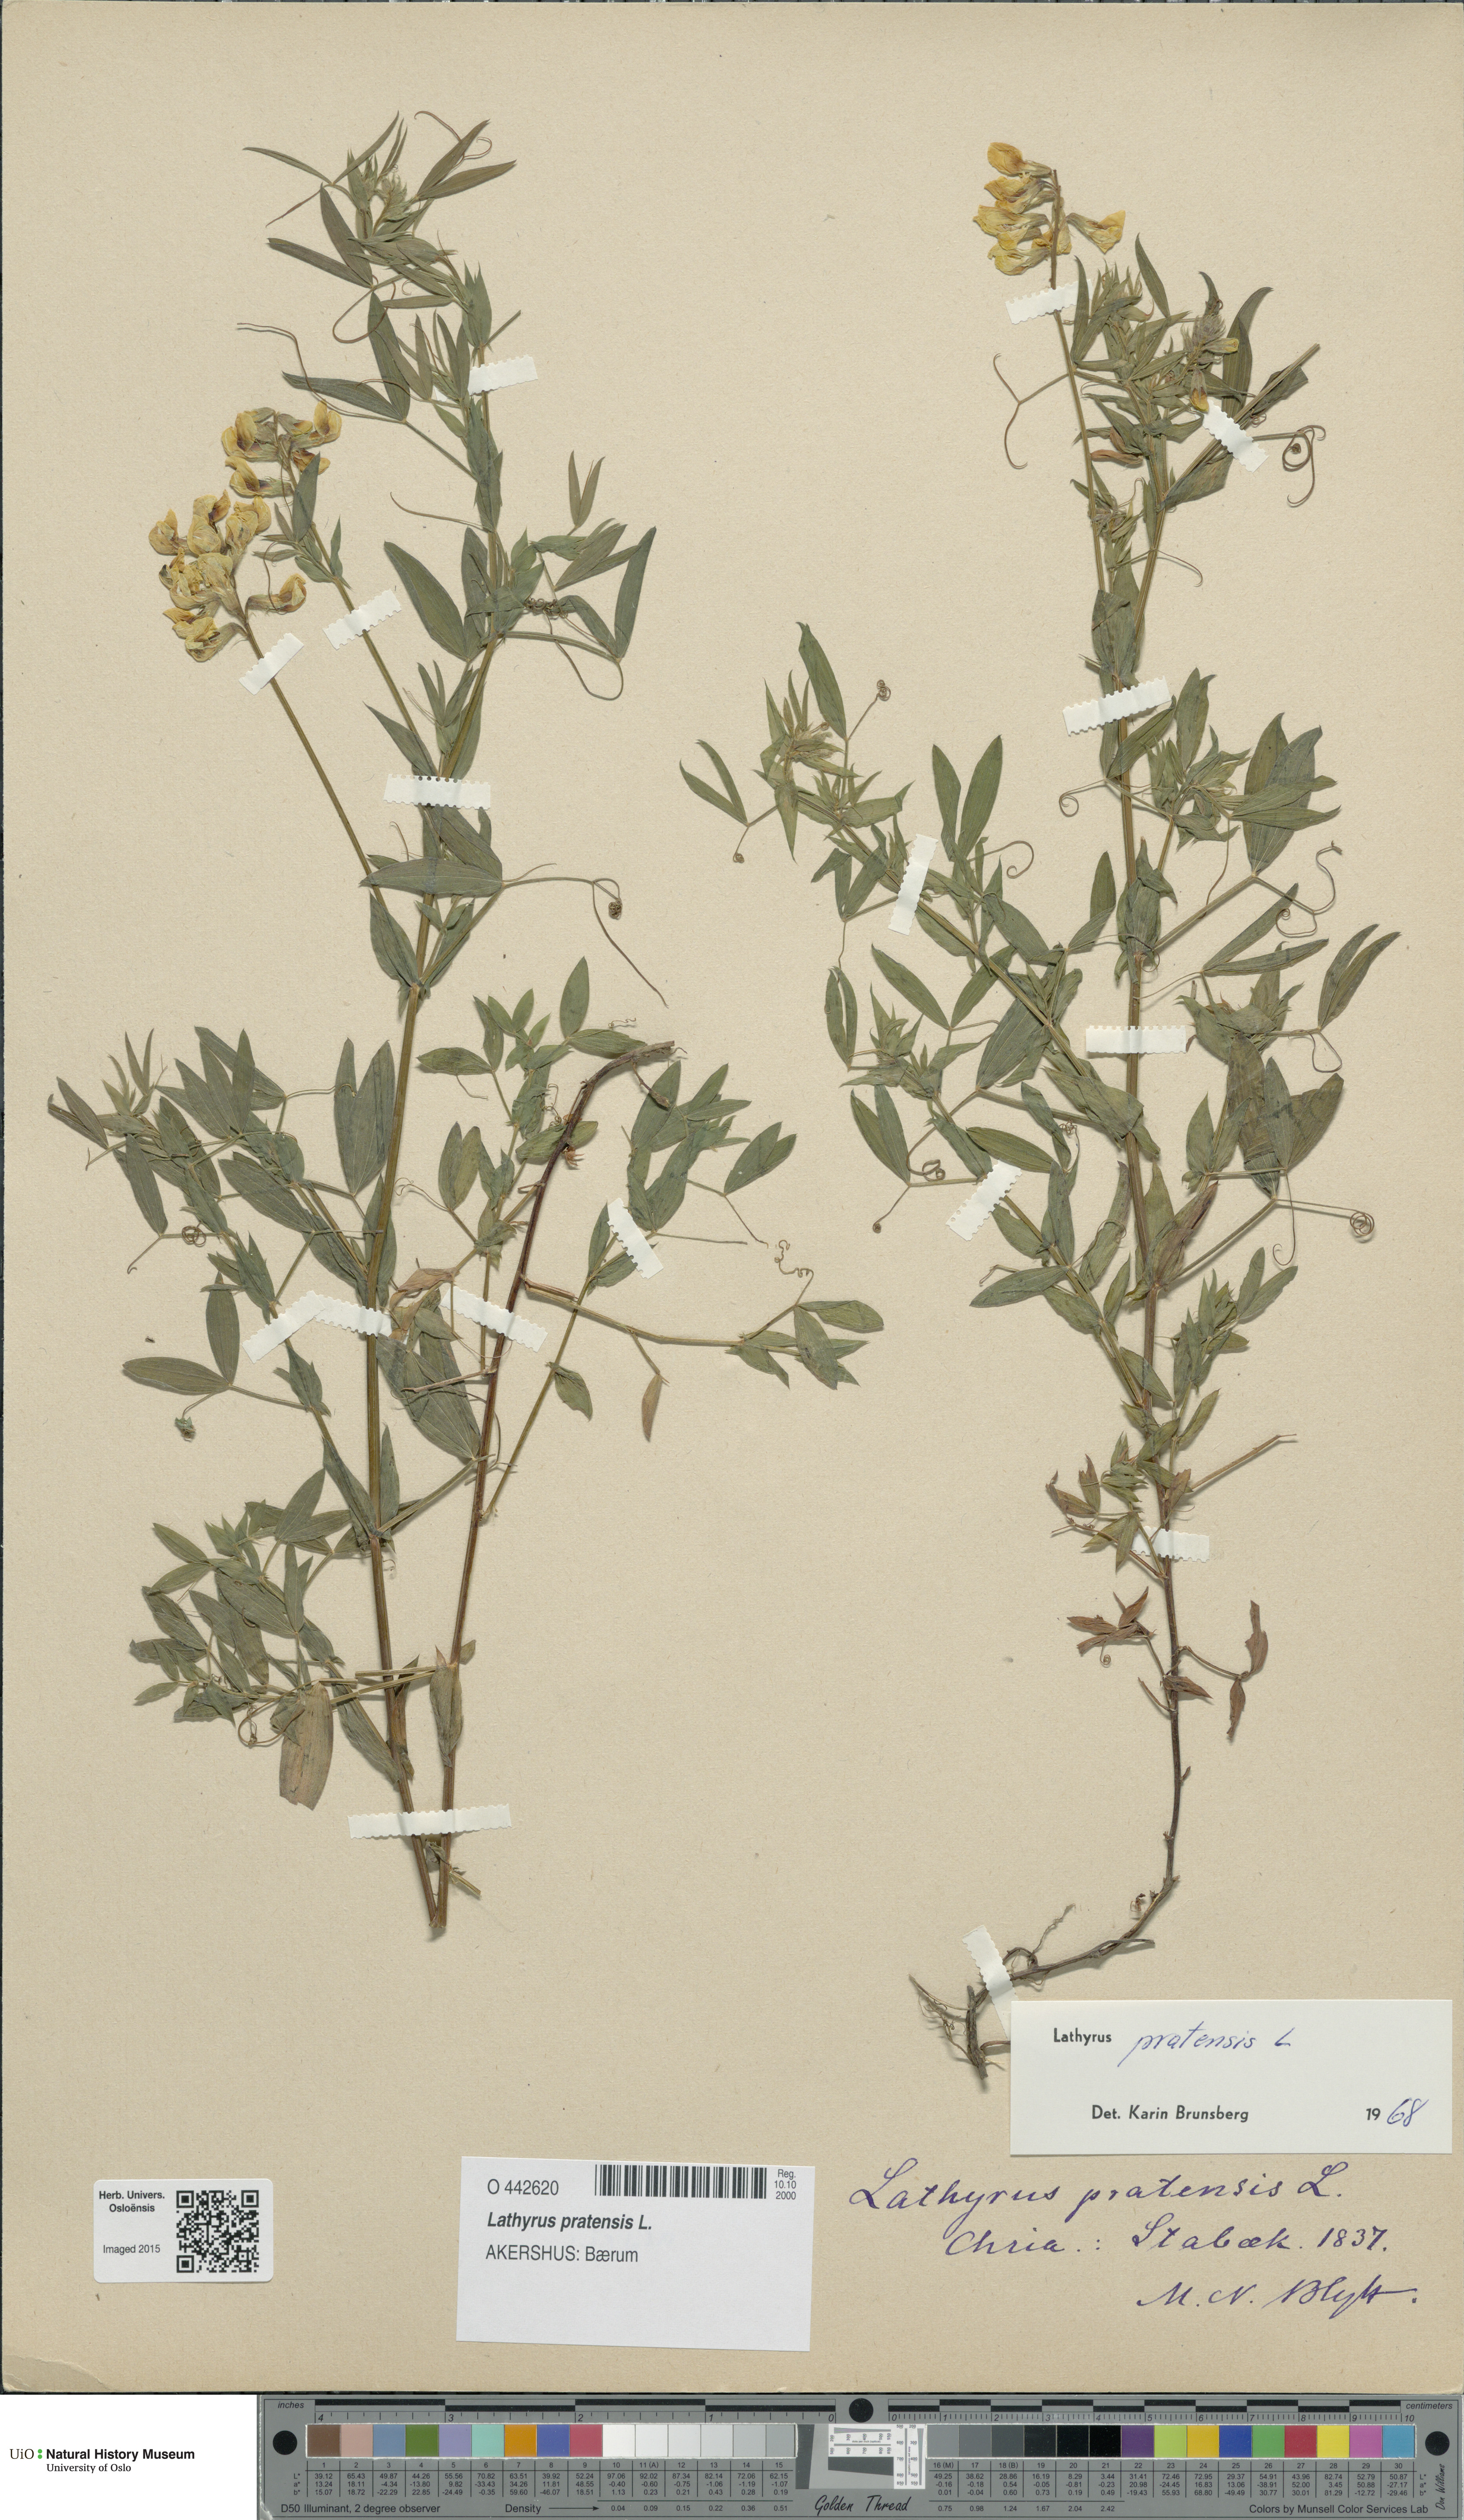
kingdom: Plantae
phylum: Tracheophyta
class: Magnoliopsida
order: Fabales
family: Fabaceae
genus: Lathyrus
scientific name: Lathyrus pratensis
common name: Meadow vetchling
